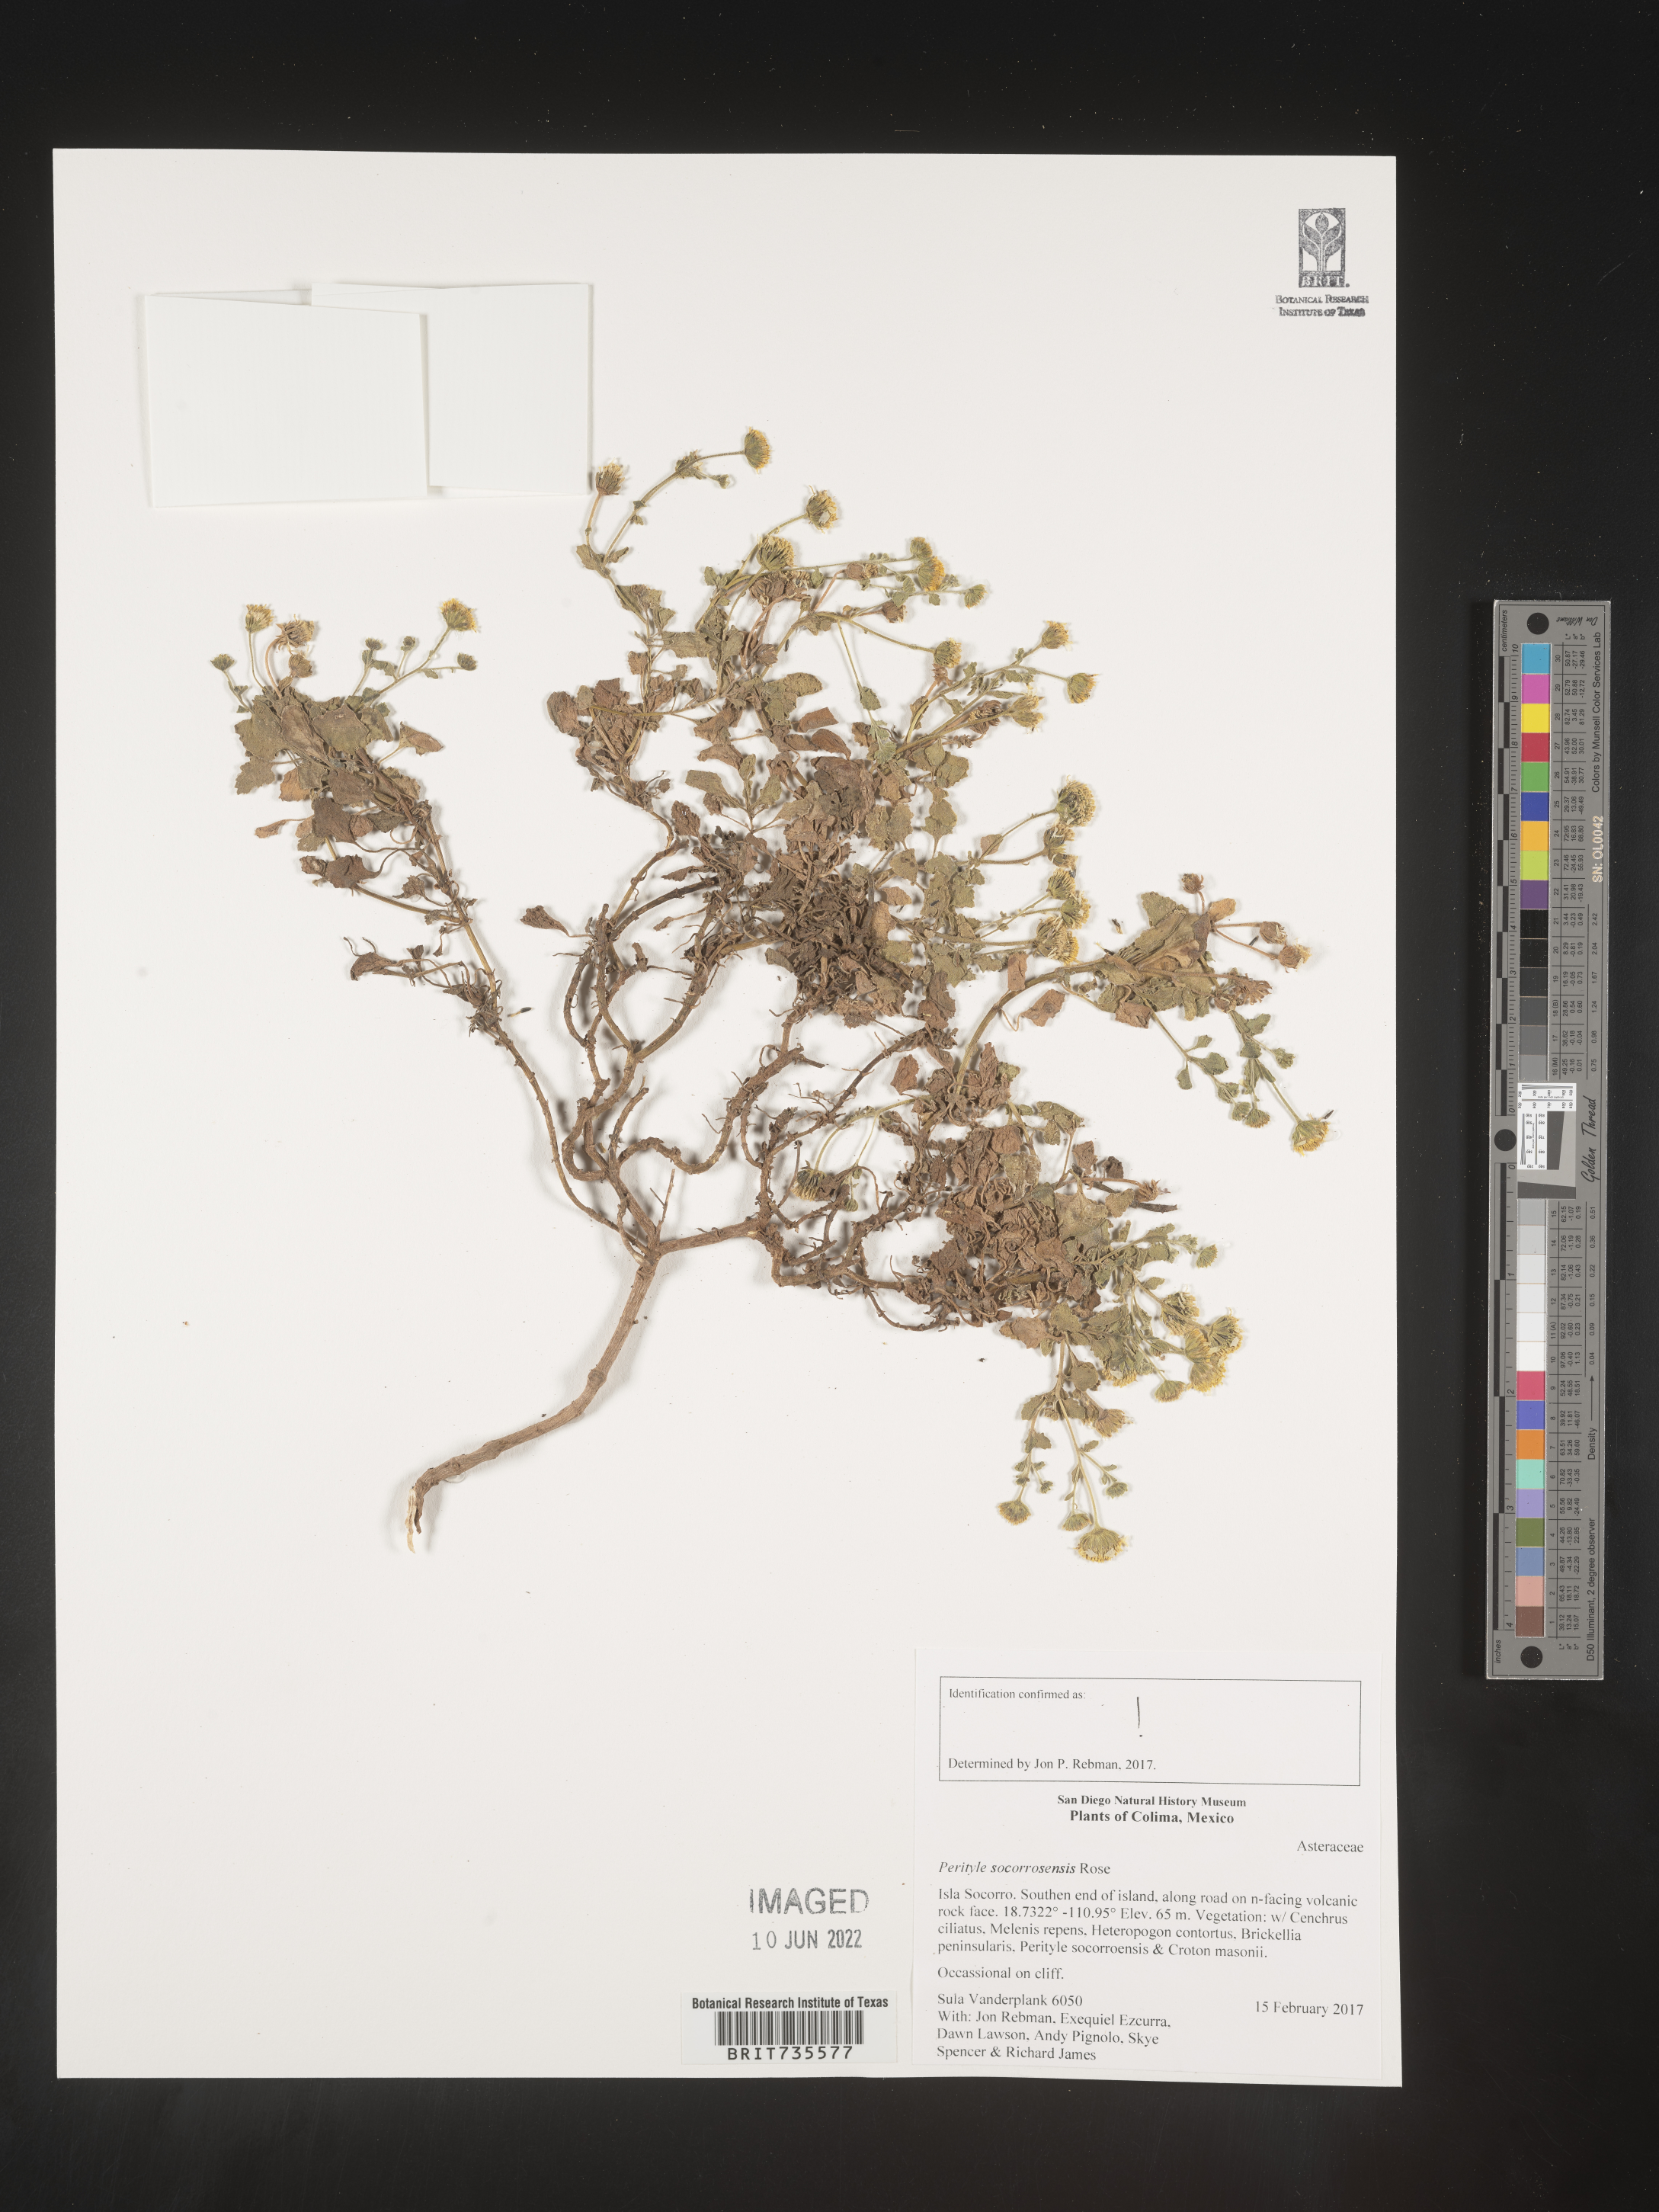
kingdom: Plantae
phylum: Tracheophyta
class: Magnoliopsida
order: Asterales
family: Asteraceae
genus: Perityle
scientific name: Perityle
